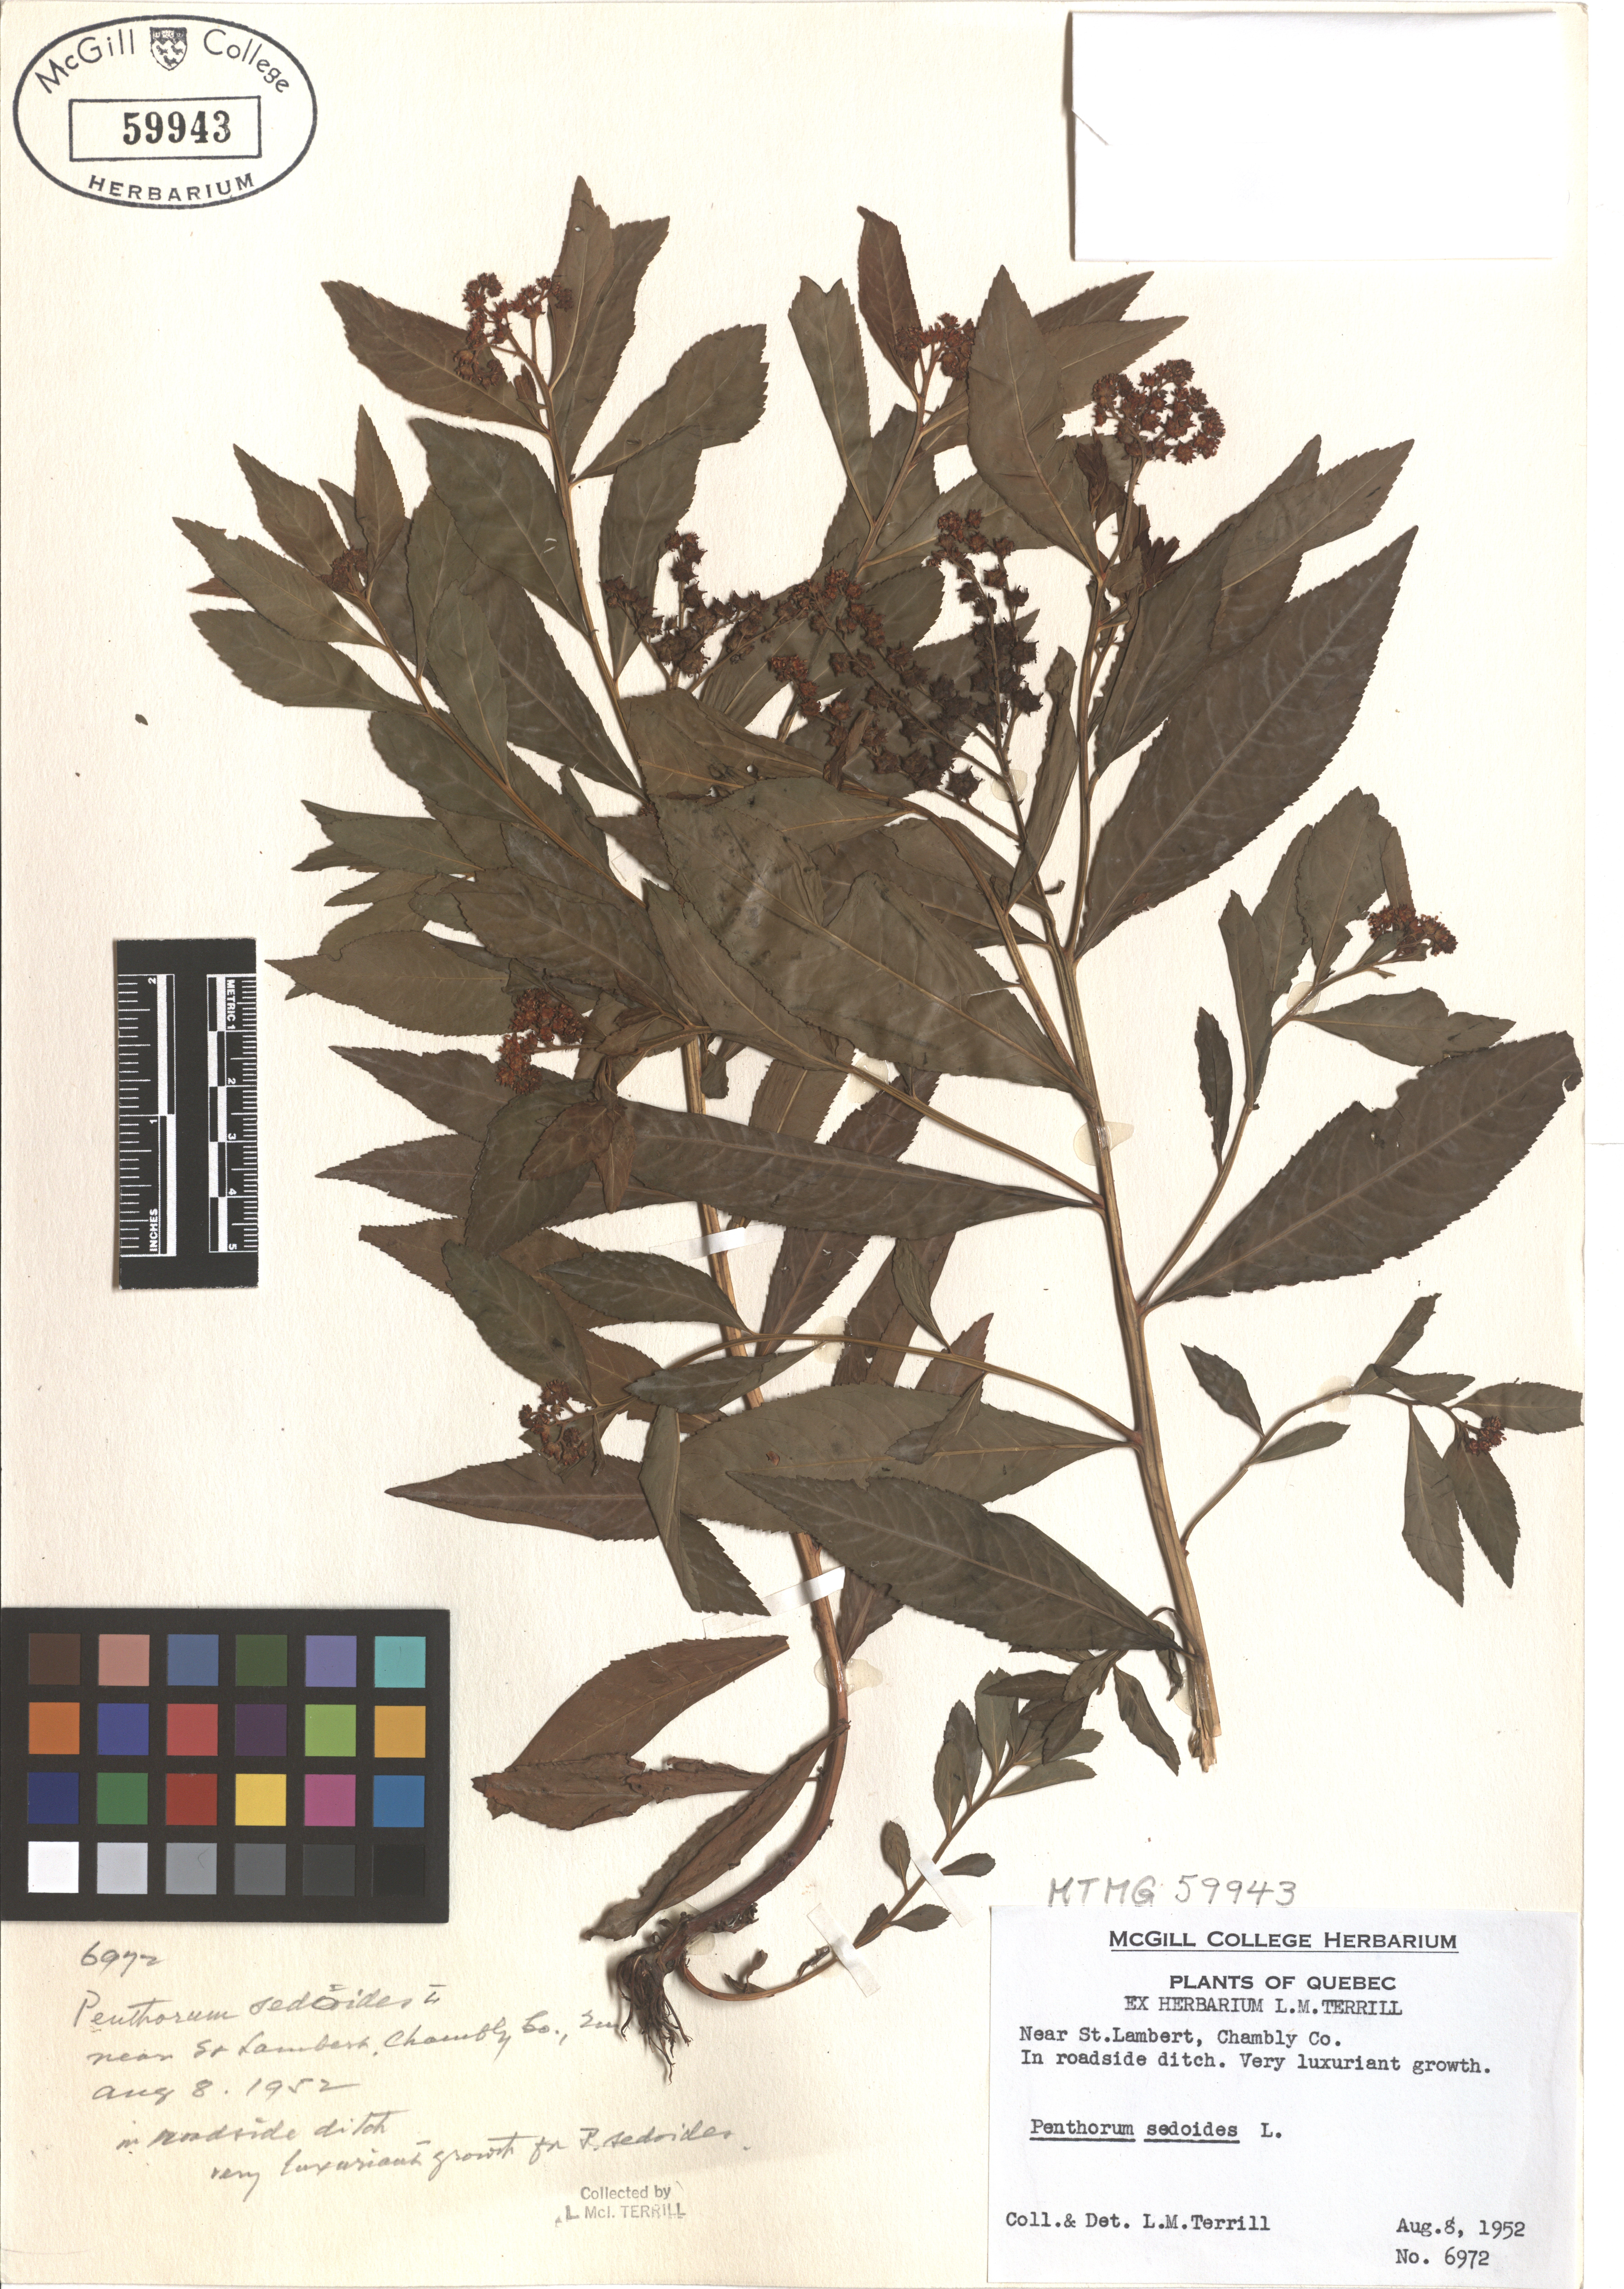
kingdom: Plantae
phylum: Tracheophyta
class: Magnoliopsida
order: Saxifragales
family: Penthoraceae
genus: Penthorum
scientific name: Penthorum sedoides
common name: Ditch stonecrop
